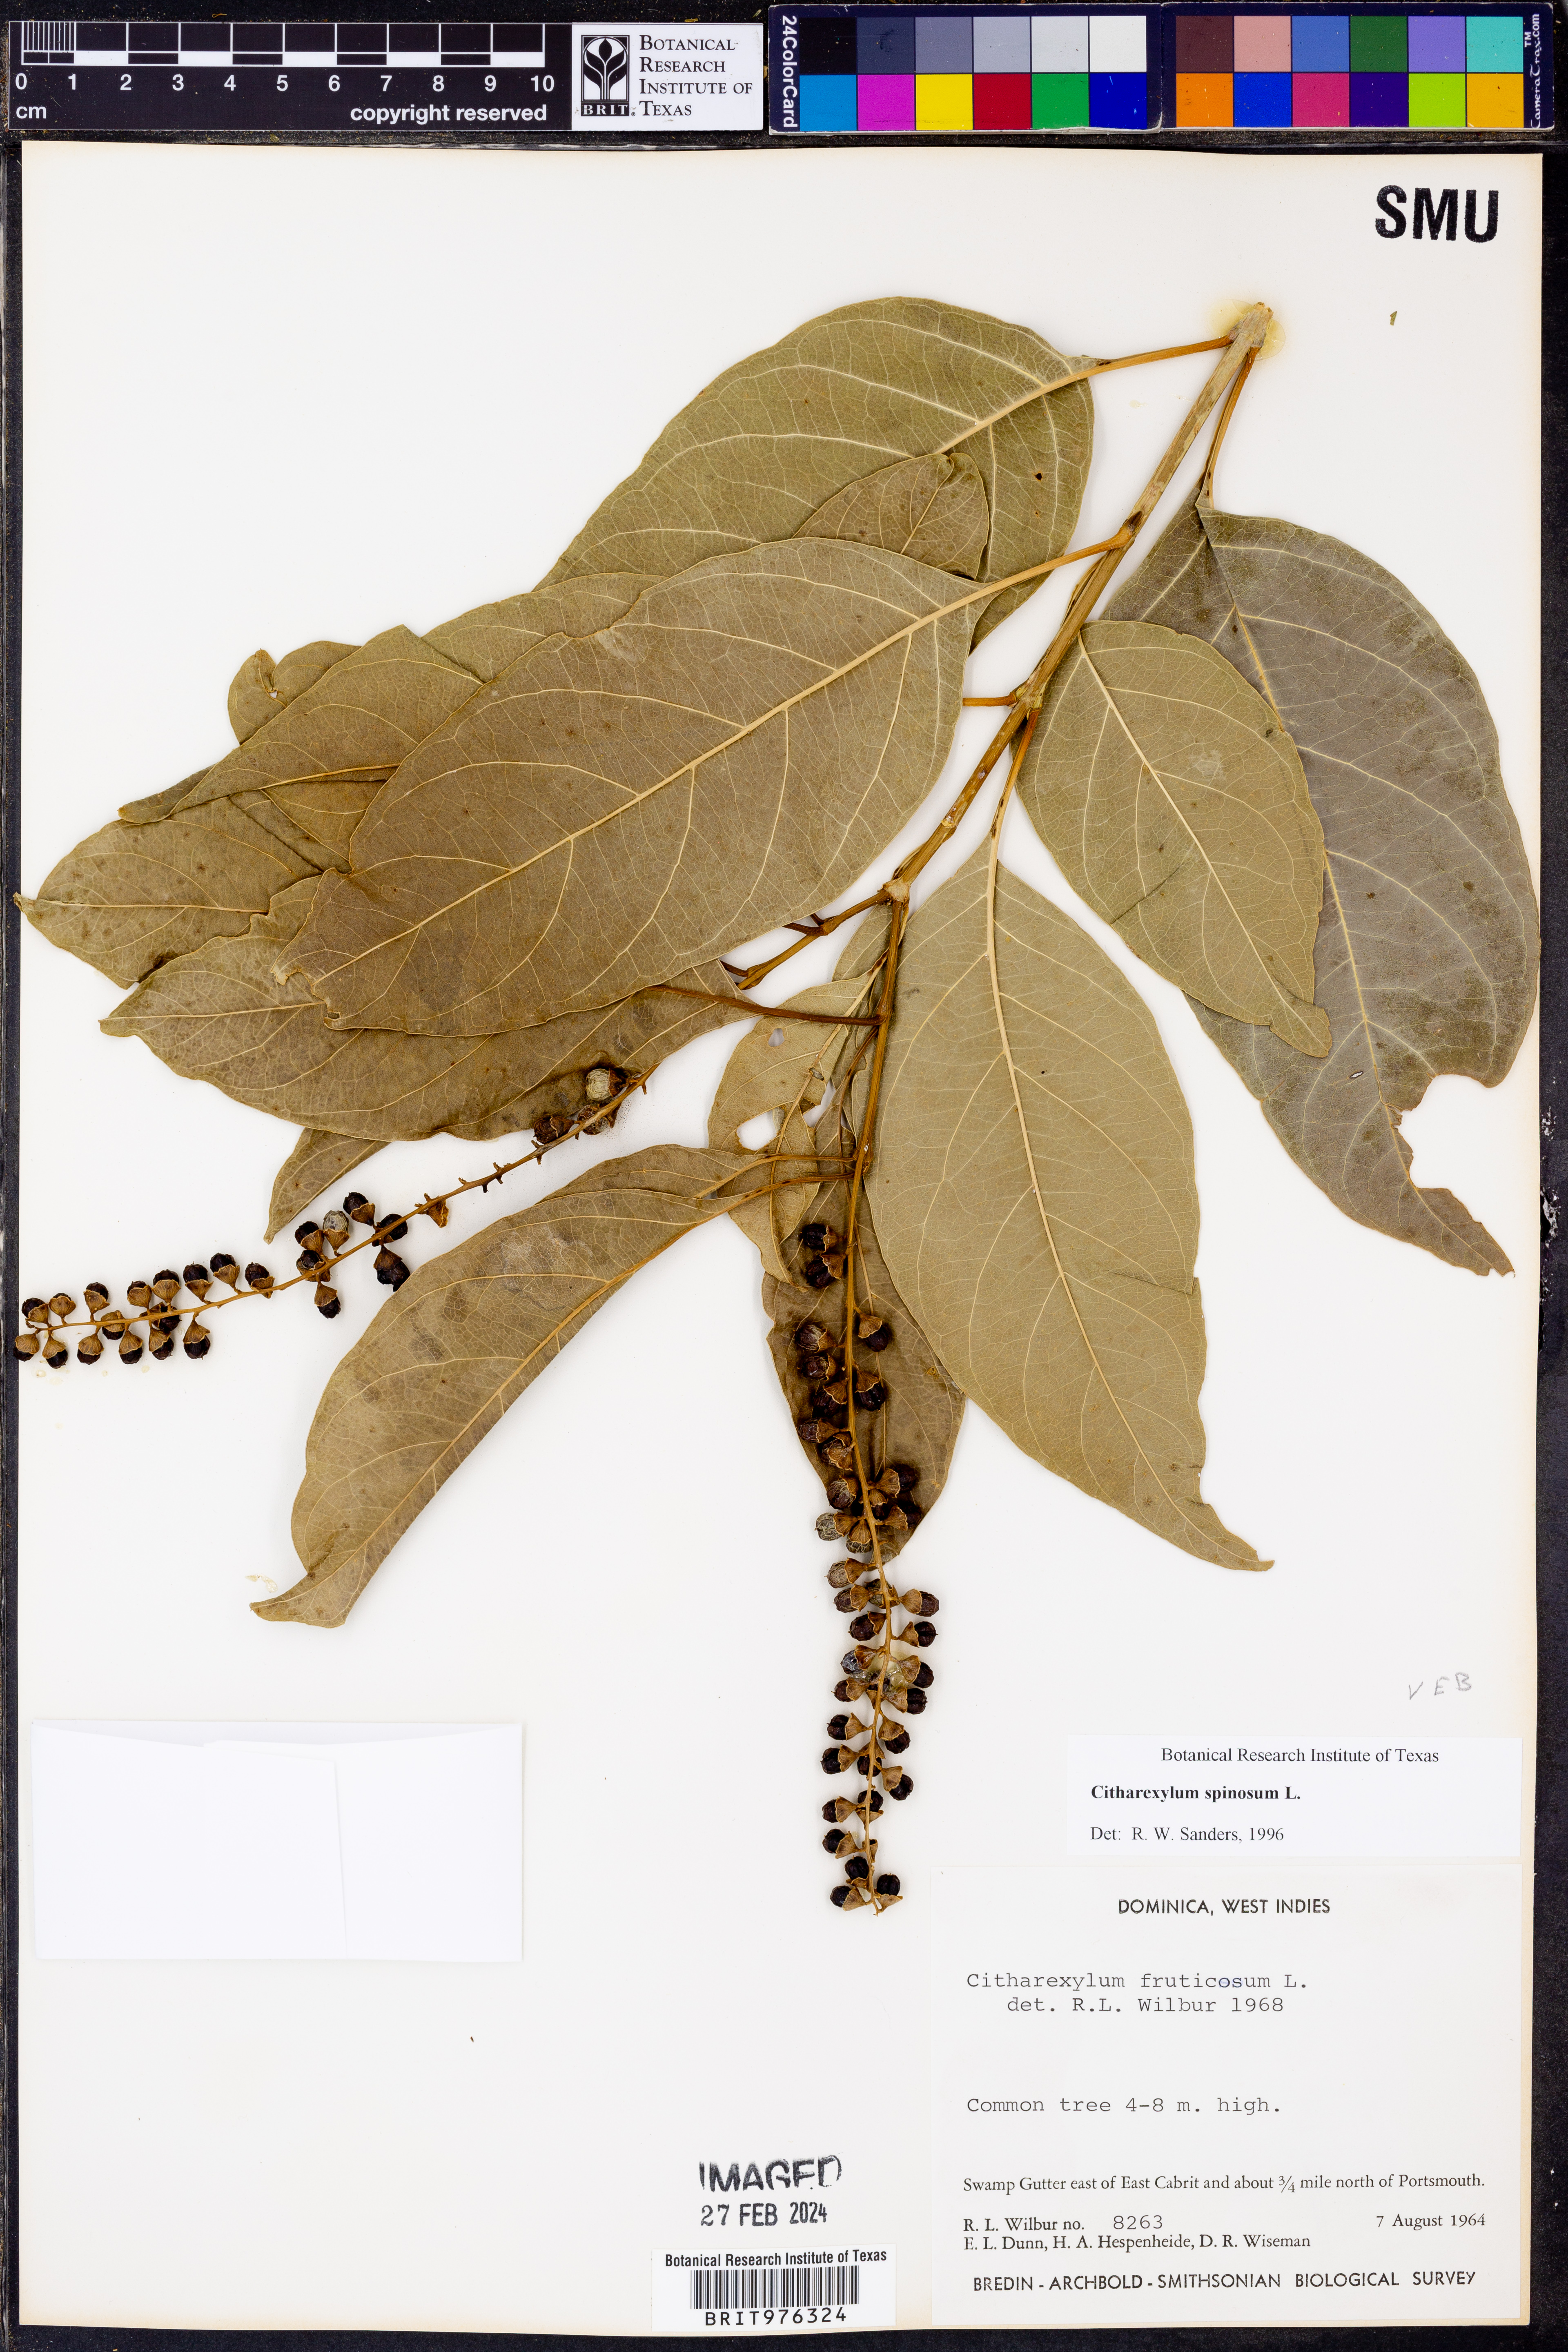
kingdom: Plantae
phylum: Tracheophyta
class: Magnoliopsida
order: Lamiales
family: Verbenaceae
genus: Citharexylum
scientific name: Citharexylum
